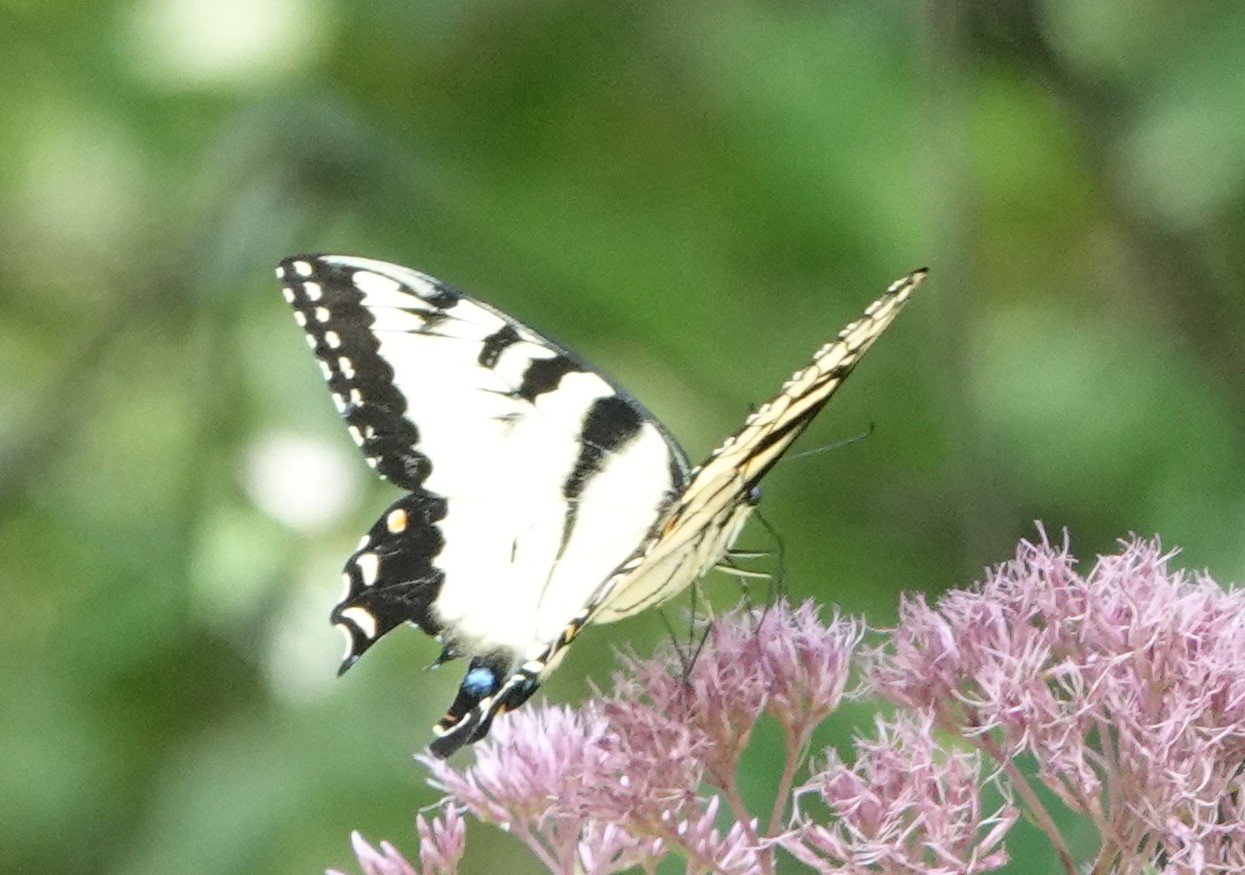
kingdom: Animalia
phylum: Arthropoda
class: Insecta
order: Lepidoptera
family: Papilionidae
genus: Pterourus
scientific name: Pterourus glaucus
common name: Eastern Tiger Swallowtail
